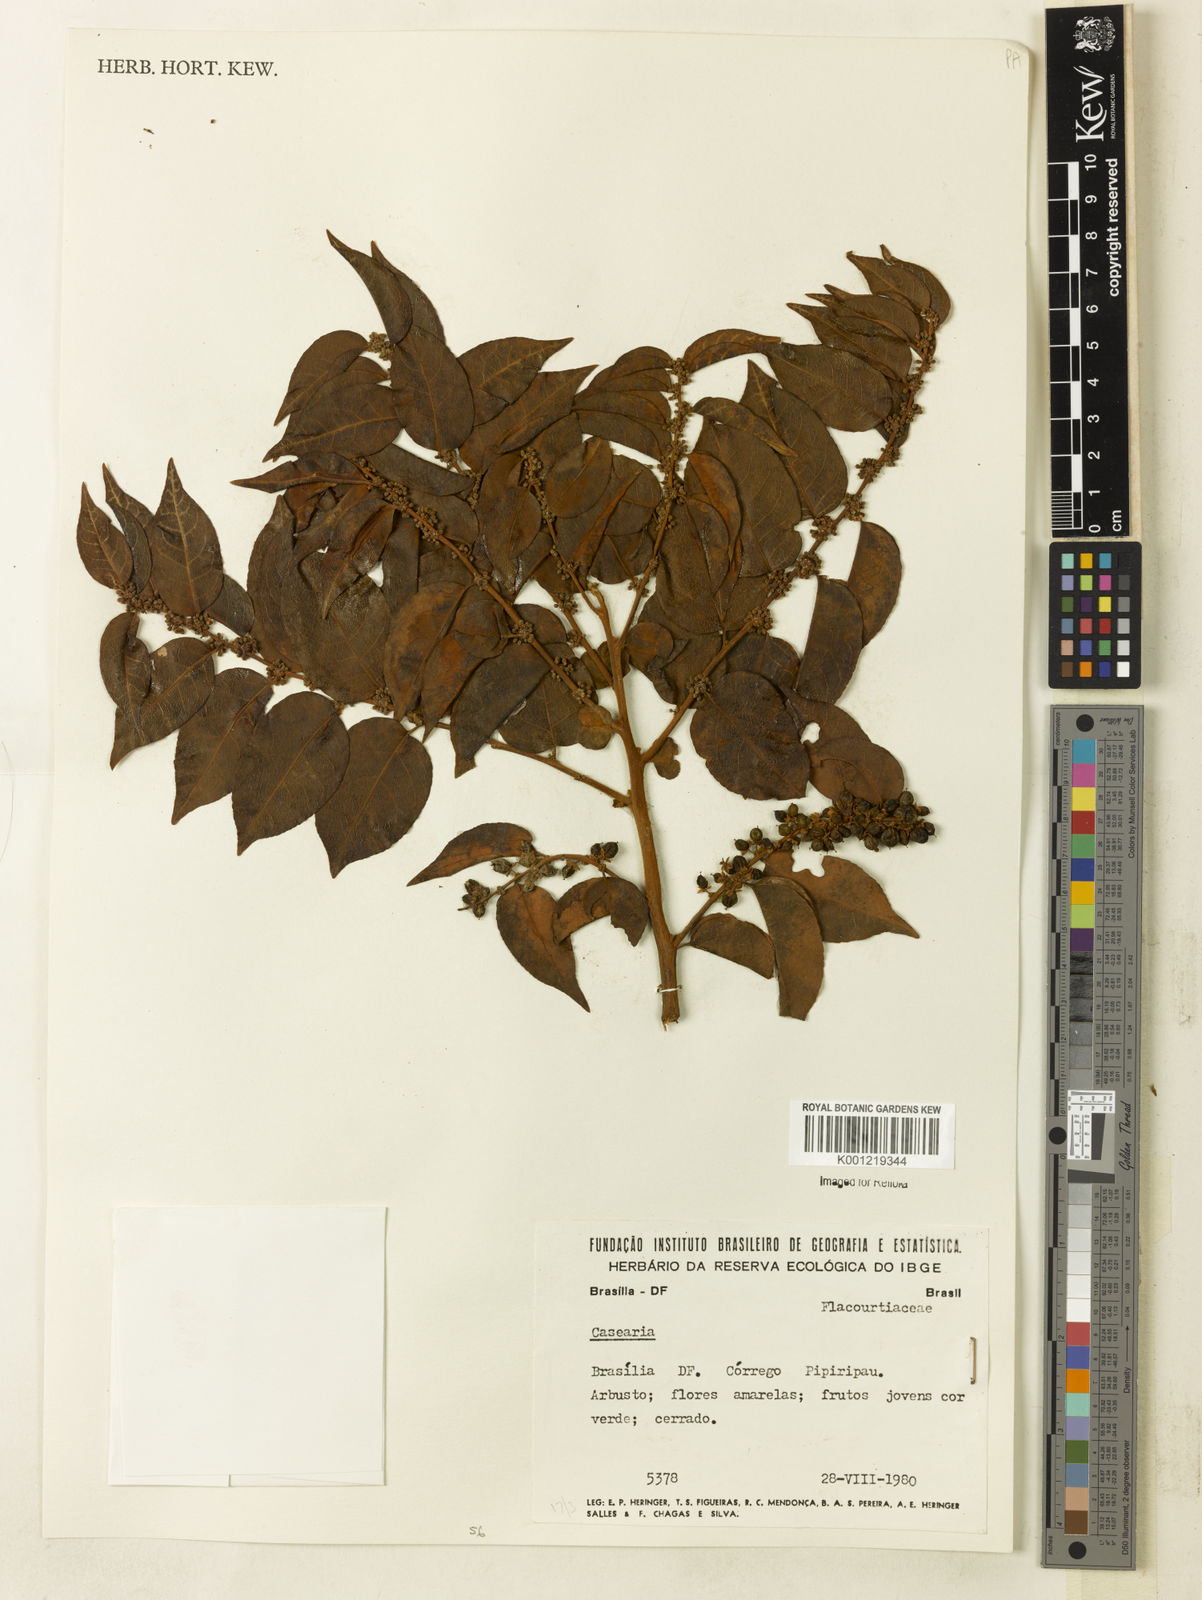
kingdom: Plantae
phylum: Tracheophyta
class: Magnoliopsida
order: Malpighiales
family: Salicaceae
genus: Casearia
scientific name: Casearia
